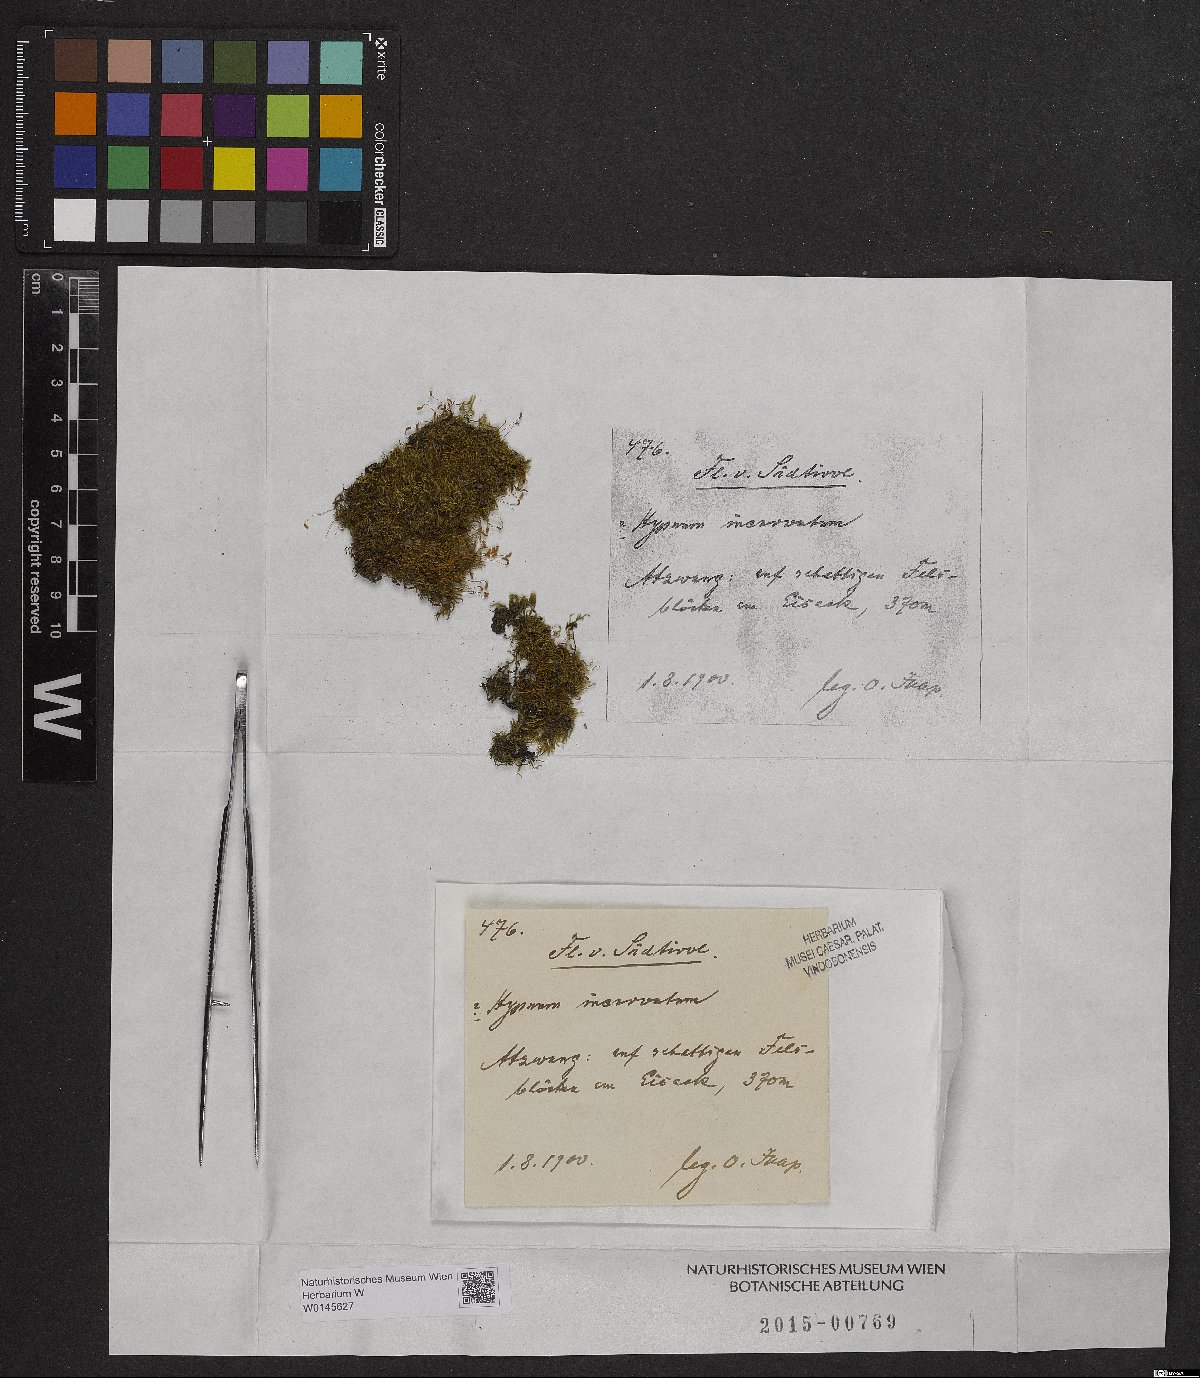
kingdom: Plantae
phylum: Bryophyta
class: Bryopsida
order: Hypnales
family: Pylaisiaceae
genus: Homomallium
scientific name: Homomallium incurvatum
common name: Incurved feather-moss
